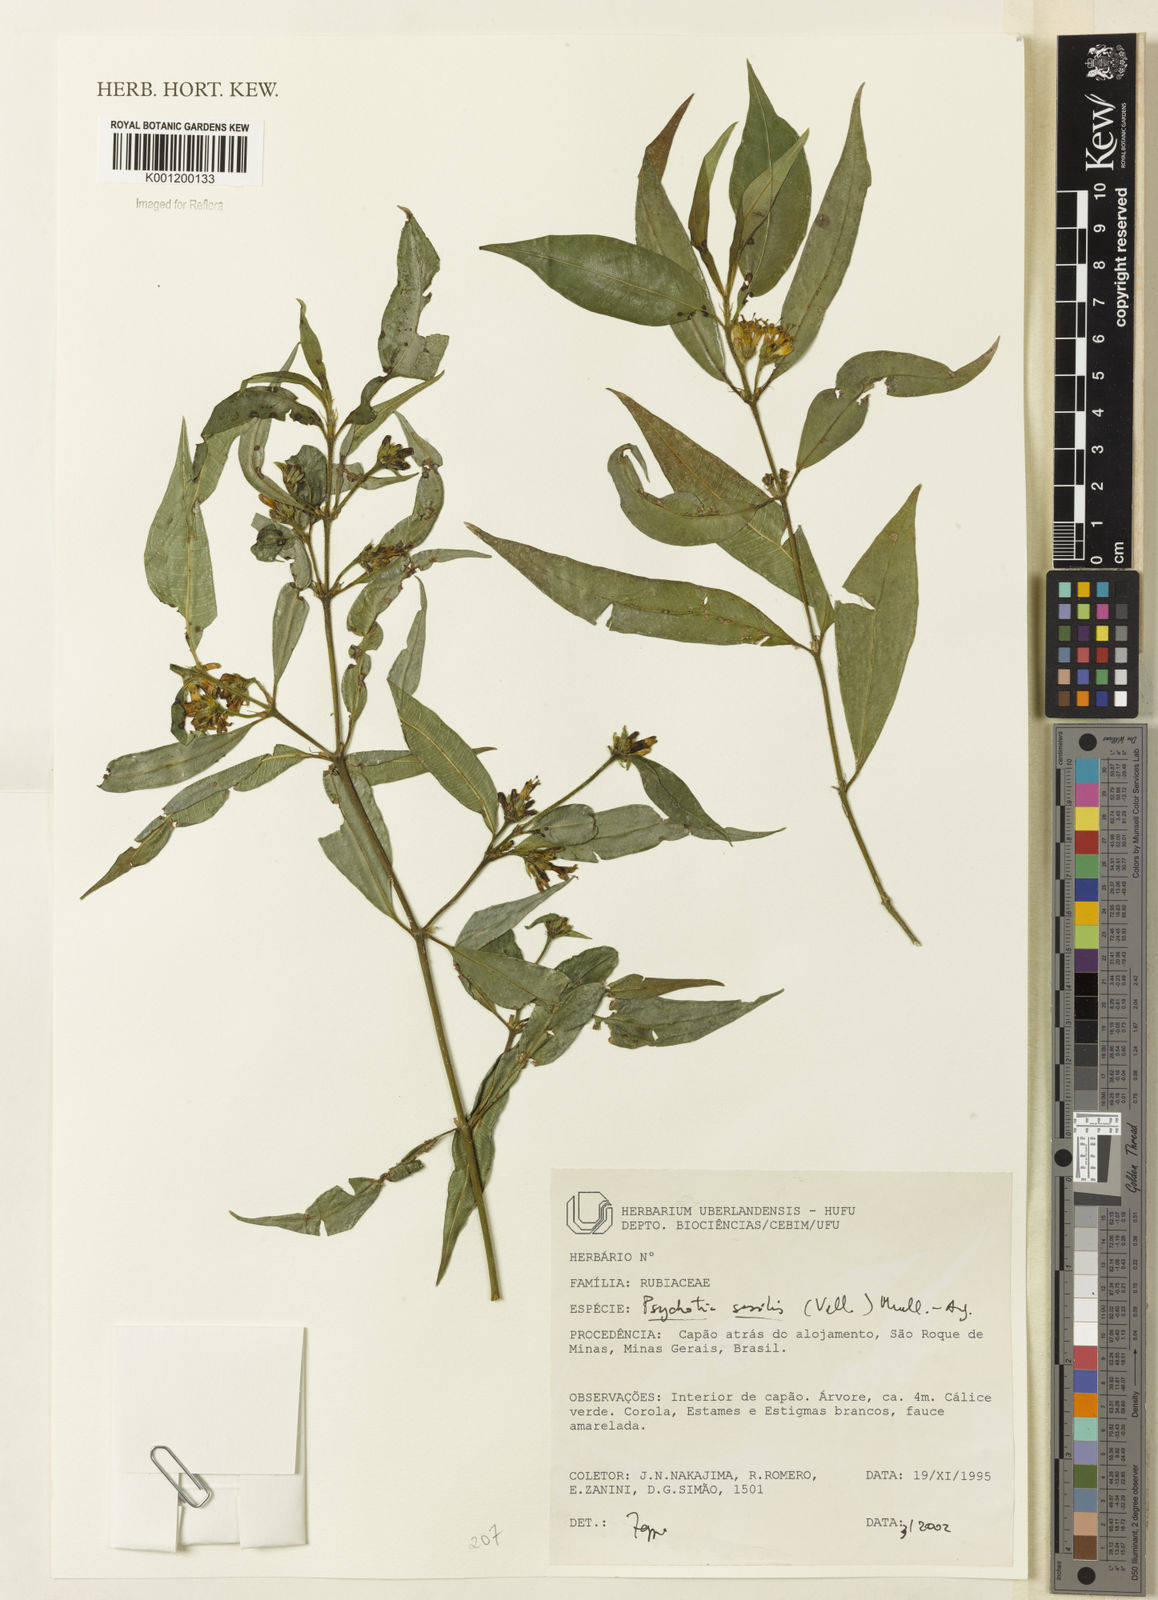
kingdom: Plantae
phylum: Tracheophyta
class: Magnoliopsida
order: Gentianales
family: Rubiaceae
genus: Rudgea
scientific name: Rudgea sessilis
